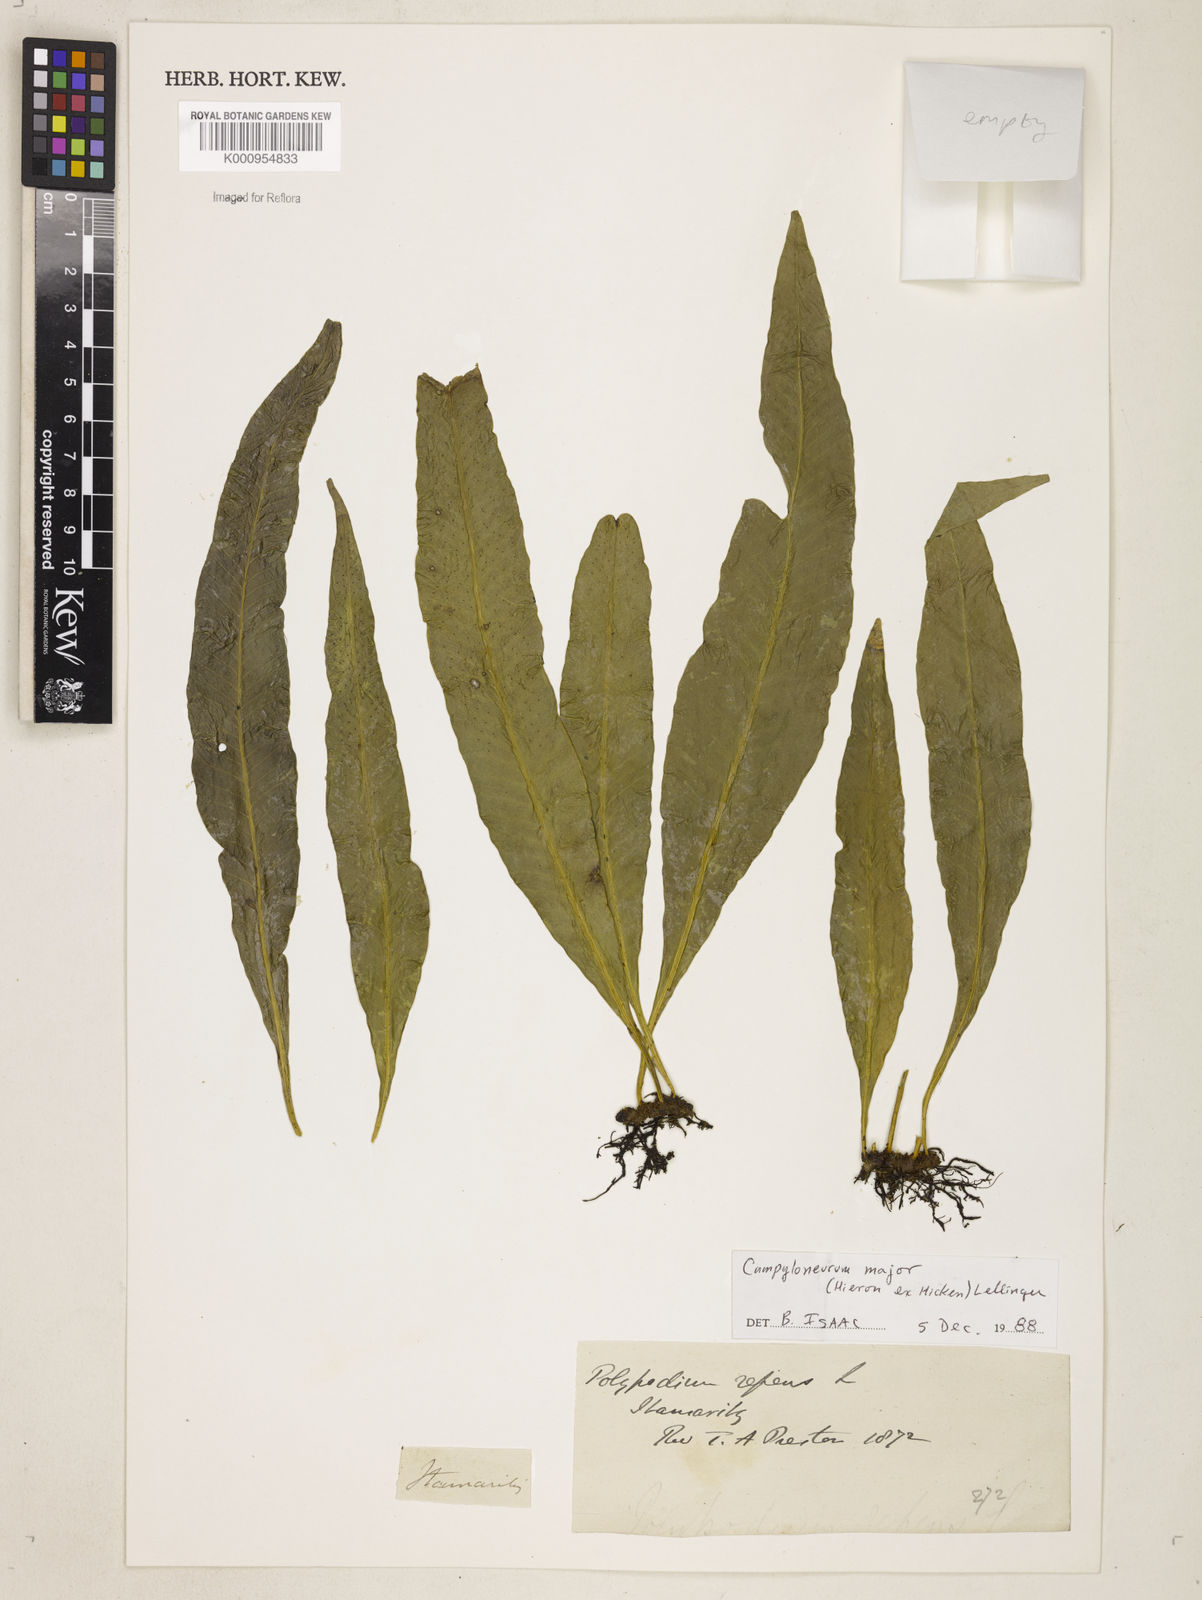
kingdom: Plantae
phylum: Tracheophyta
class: Polypodiopsida
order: Polypodiales
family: Polypodiaceae
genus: Campyloneurum
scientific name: Campyloneurum majus
